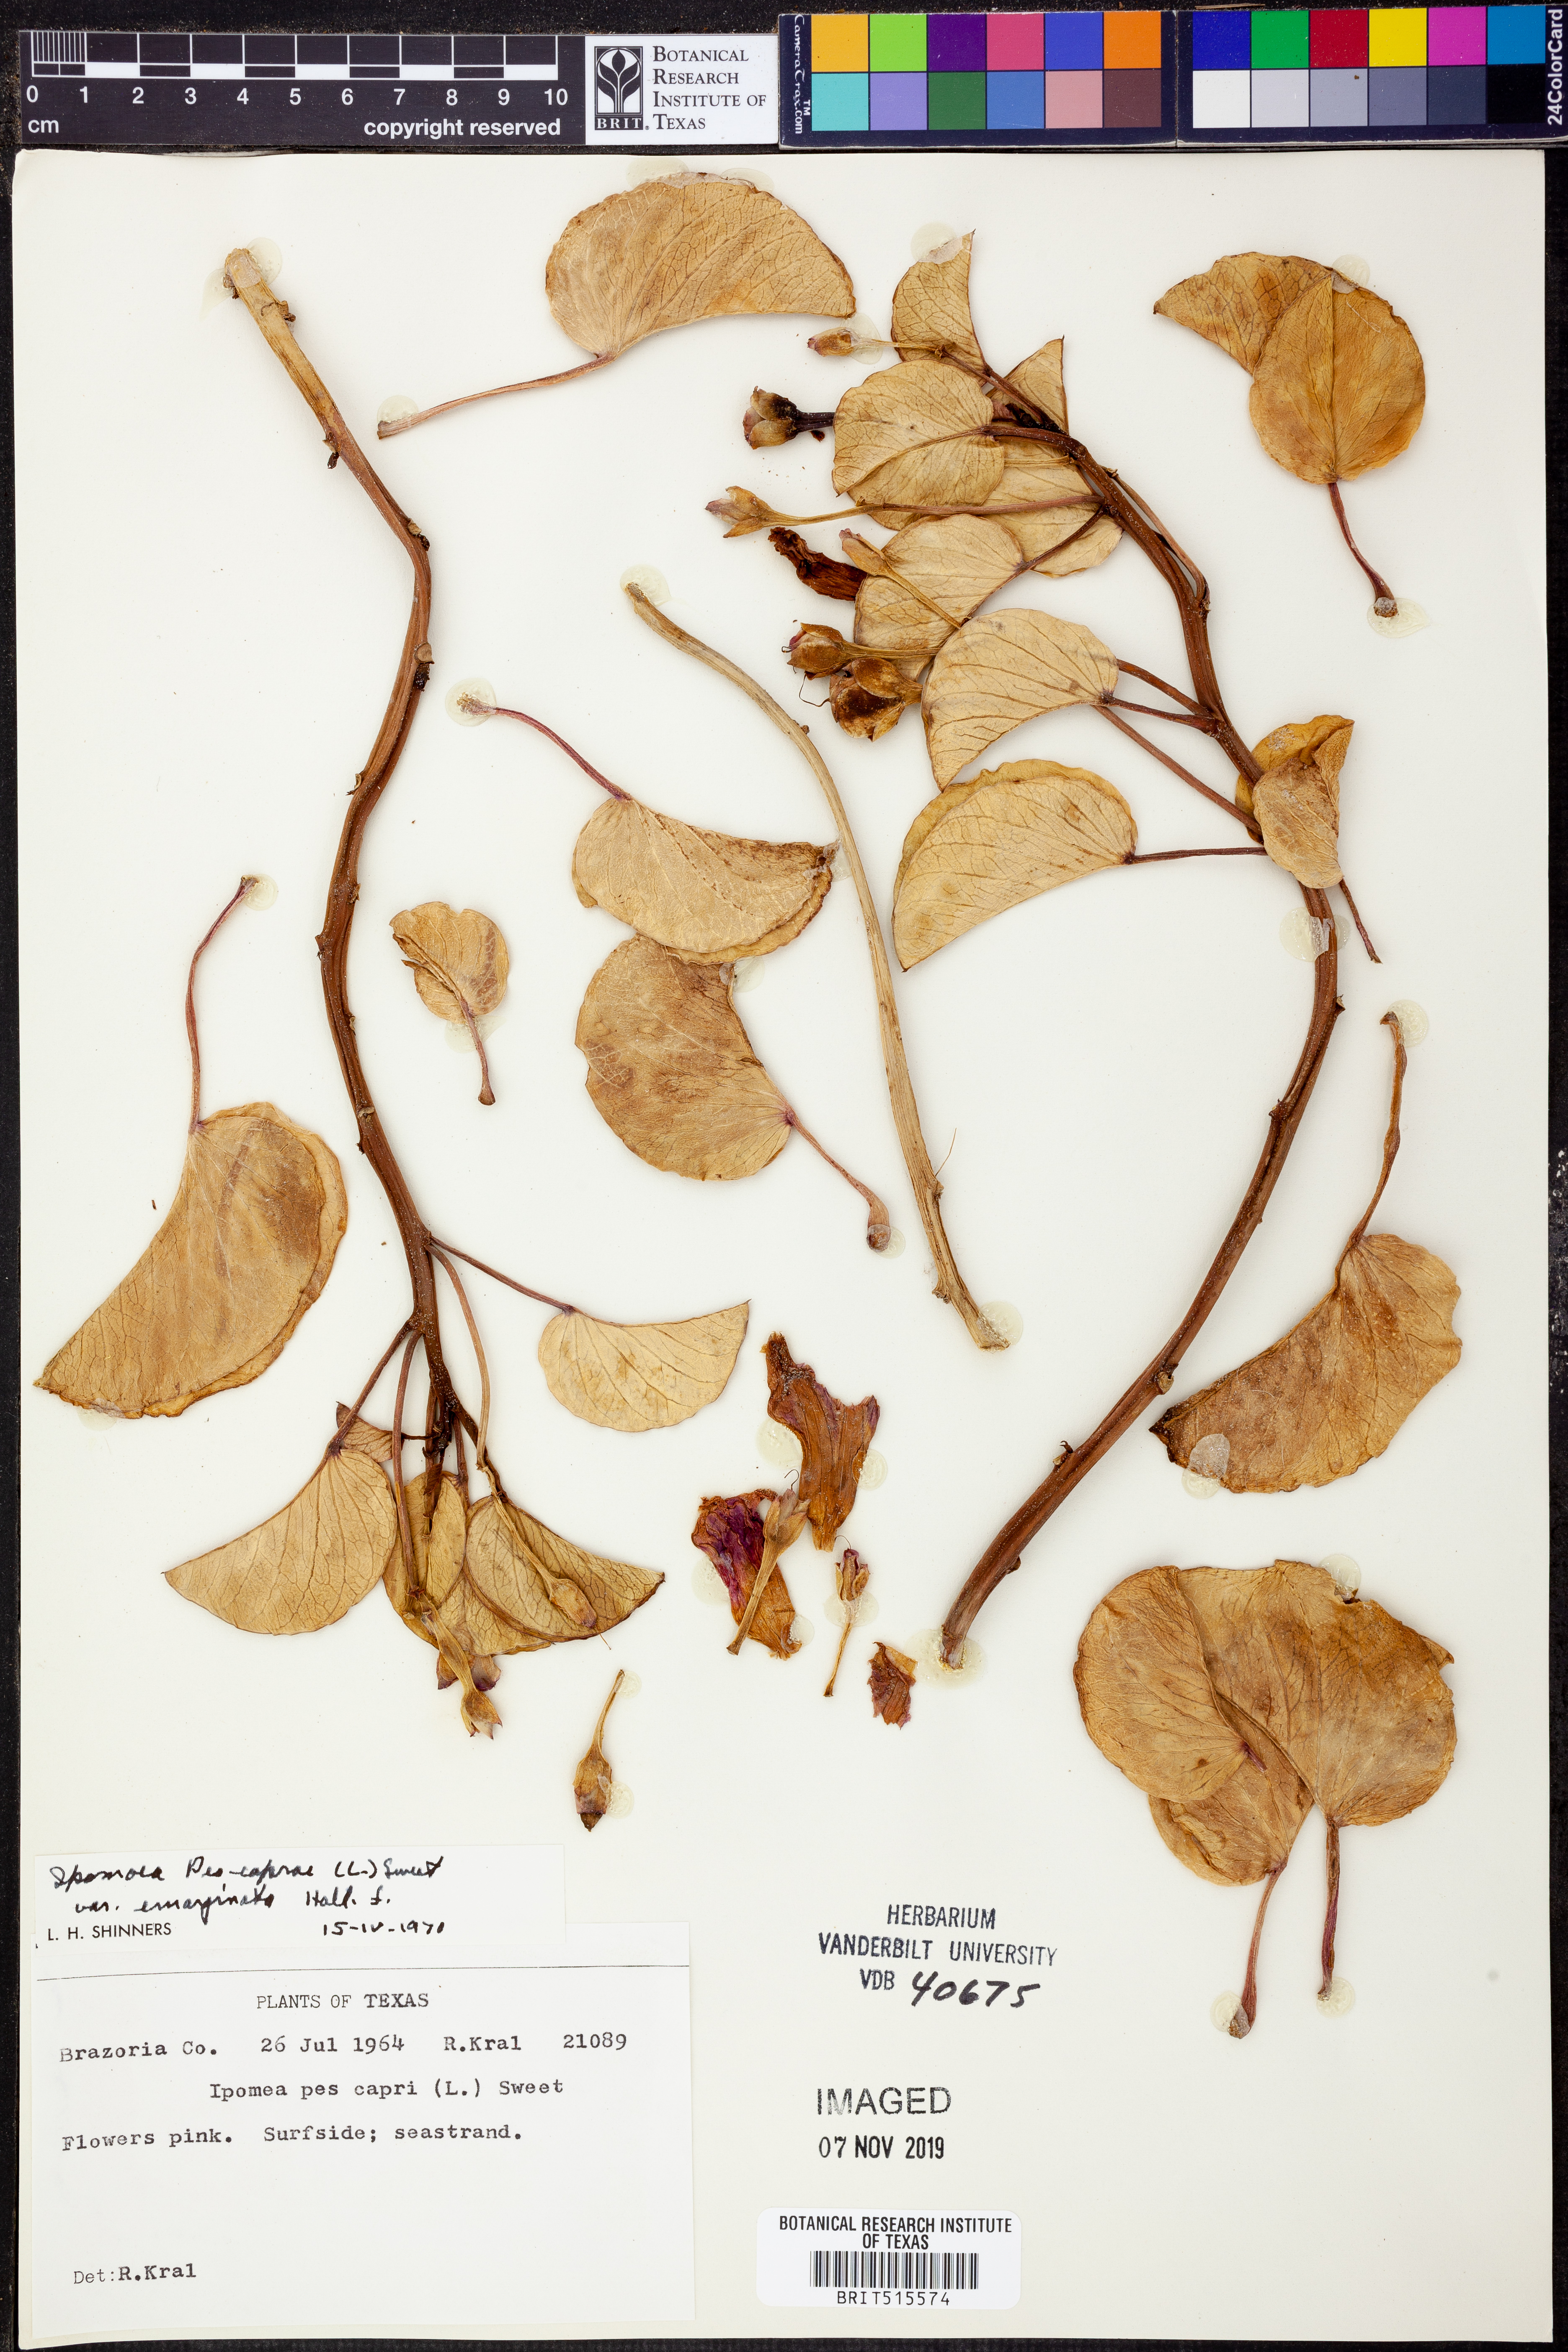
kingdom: Plantae
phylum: Tracheophyta
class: Magnoliopsida
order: Solanales
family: Convolvulaceae
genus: Ipomoea
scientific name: Ipomoea pes-caprae
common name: Beach morning glory
